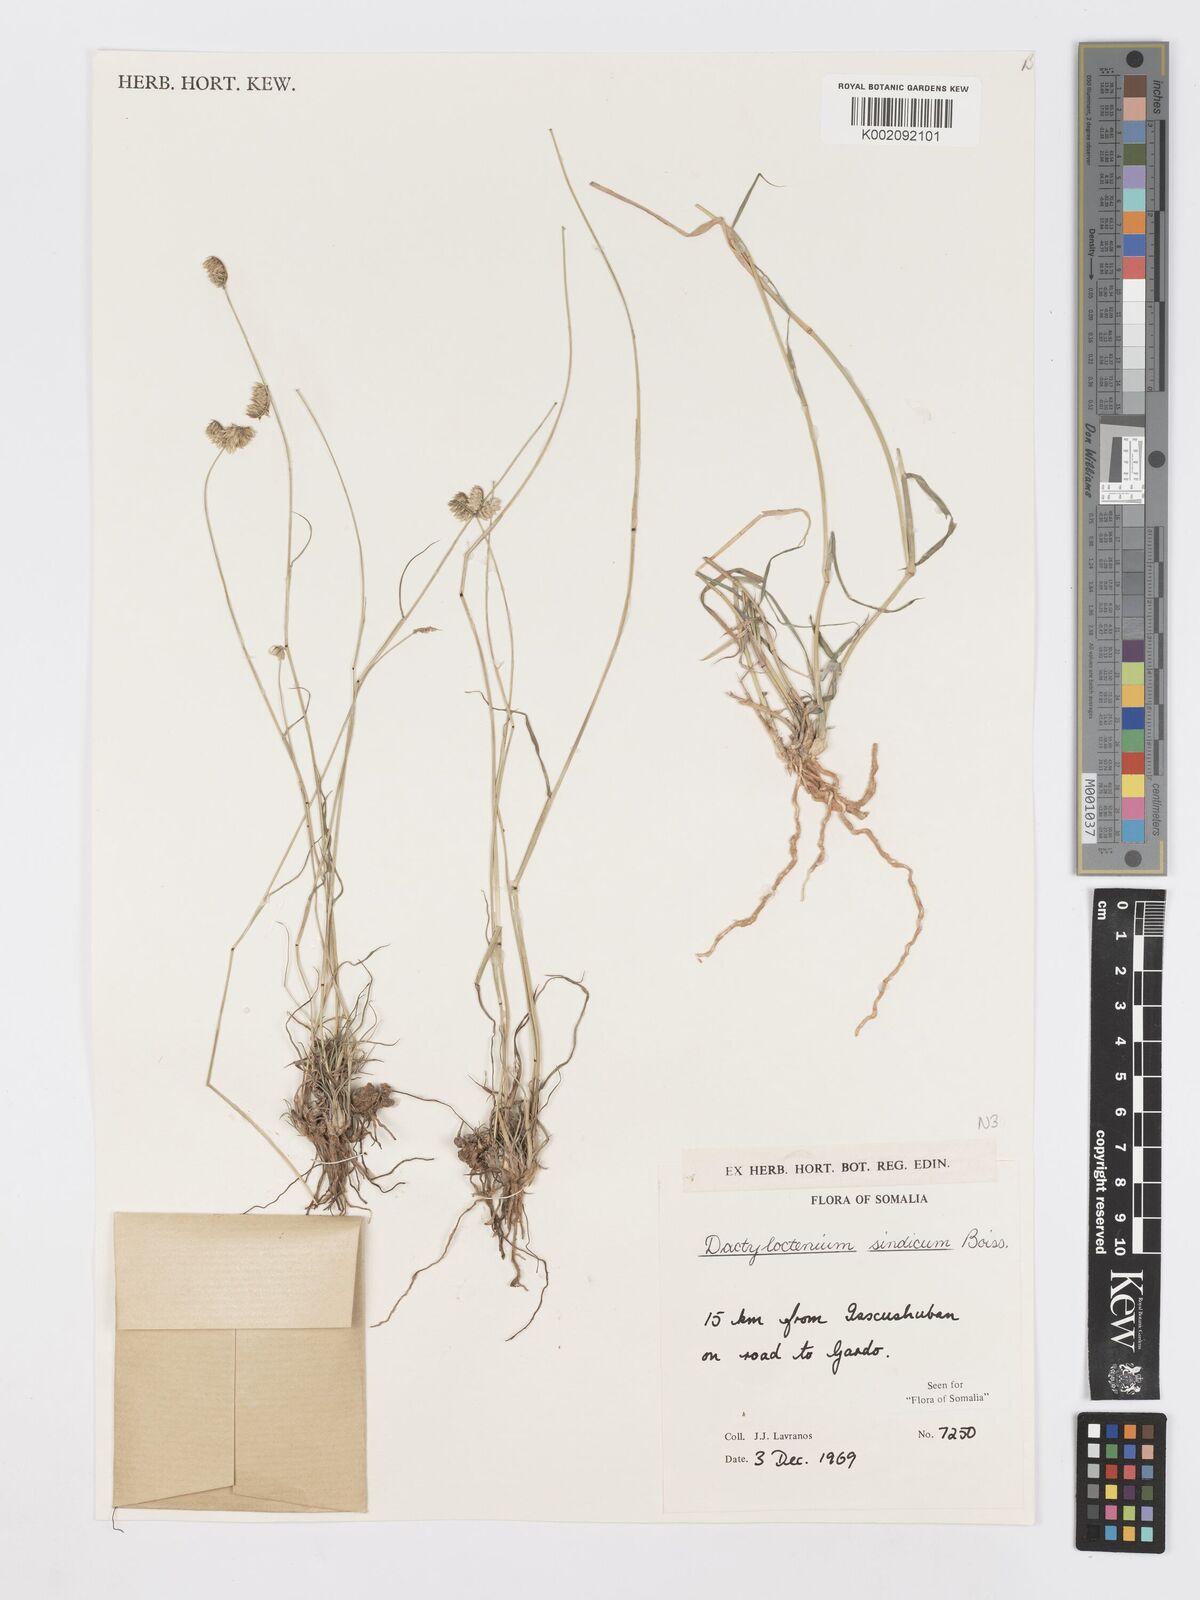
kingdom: Plantae
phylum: Tracheophyta
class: Liliopsida
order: Poales
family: Poaceae
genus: Dactyloctenium
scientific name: Dactyloctenium scindicum
